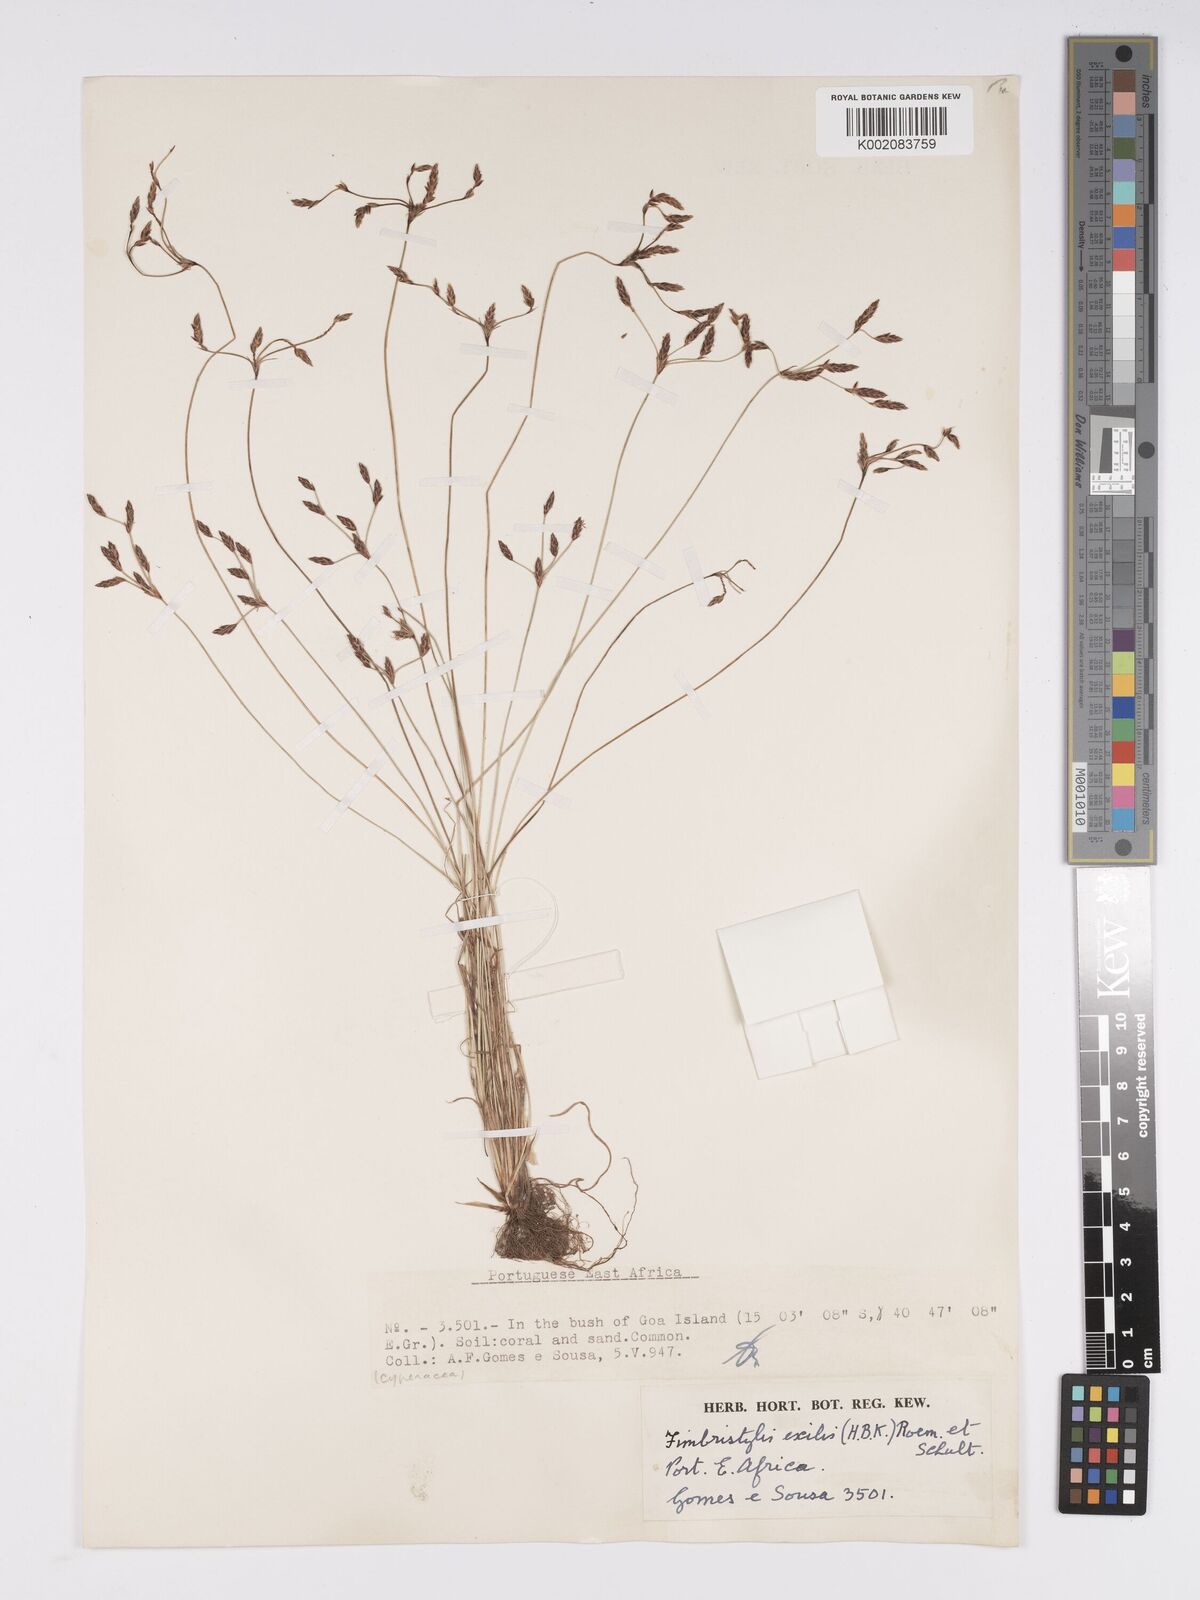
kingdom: Plantae
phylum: Tracheophyta
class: Liliopsida
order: Poales
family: Cyperaceae
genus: Bulbostylis
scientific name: Bulbostylis hispidula
